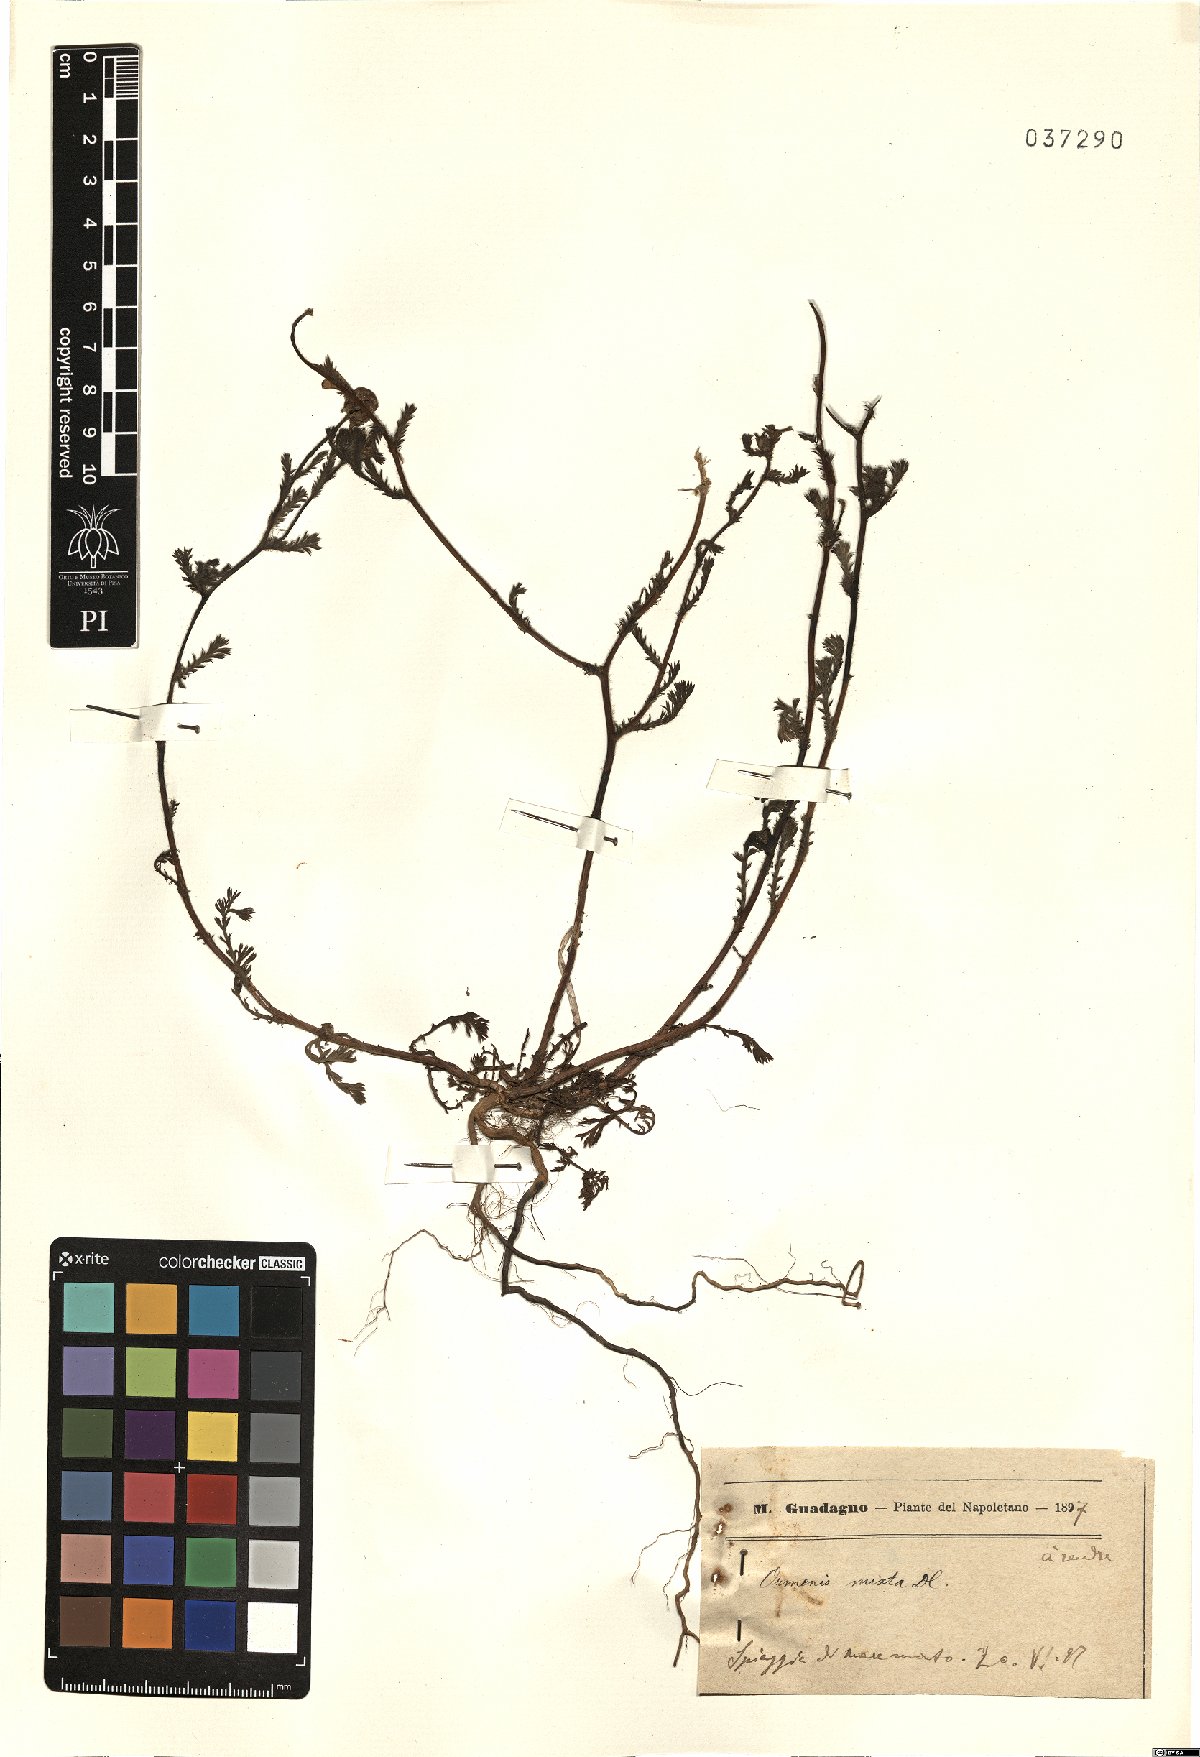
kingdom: Plantae
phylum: Tracheophyta
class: Magnoliopsida
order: Asterales
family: Asteraceae
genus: Cladanthus
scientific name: Cladanthus mixtus
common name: Weedy dogfennel
